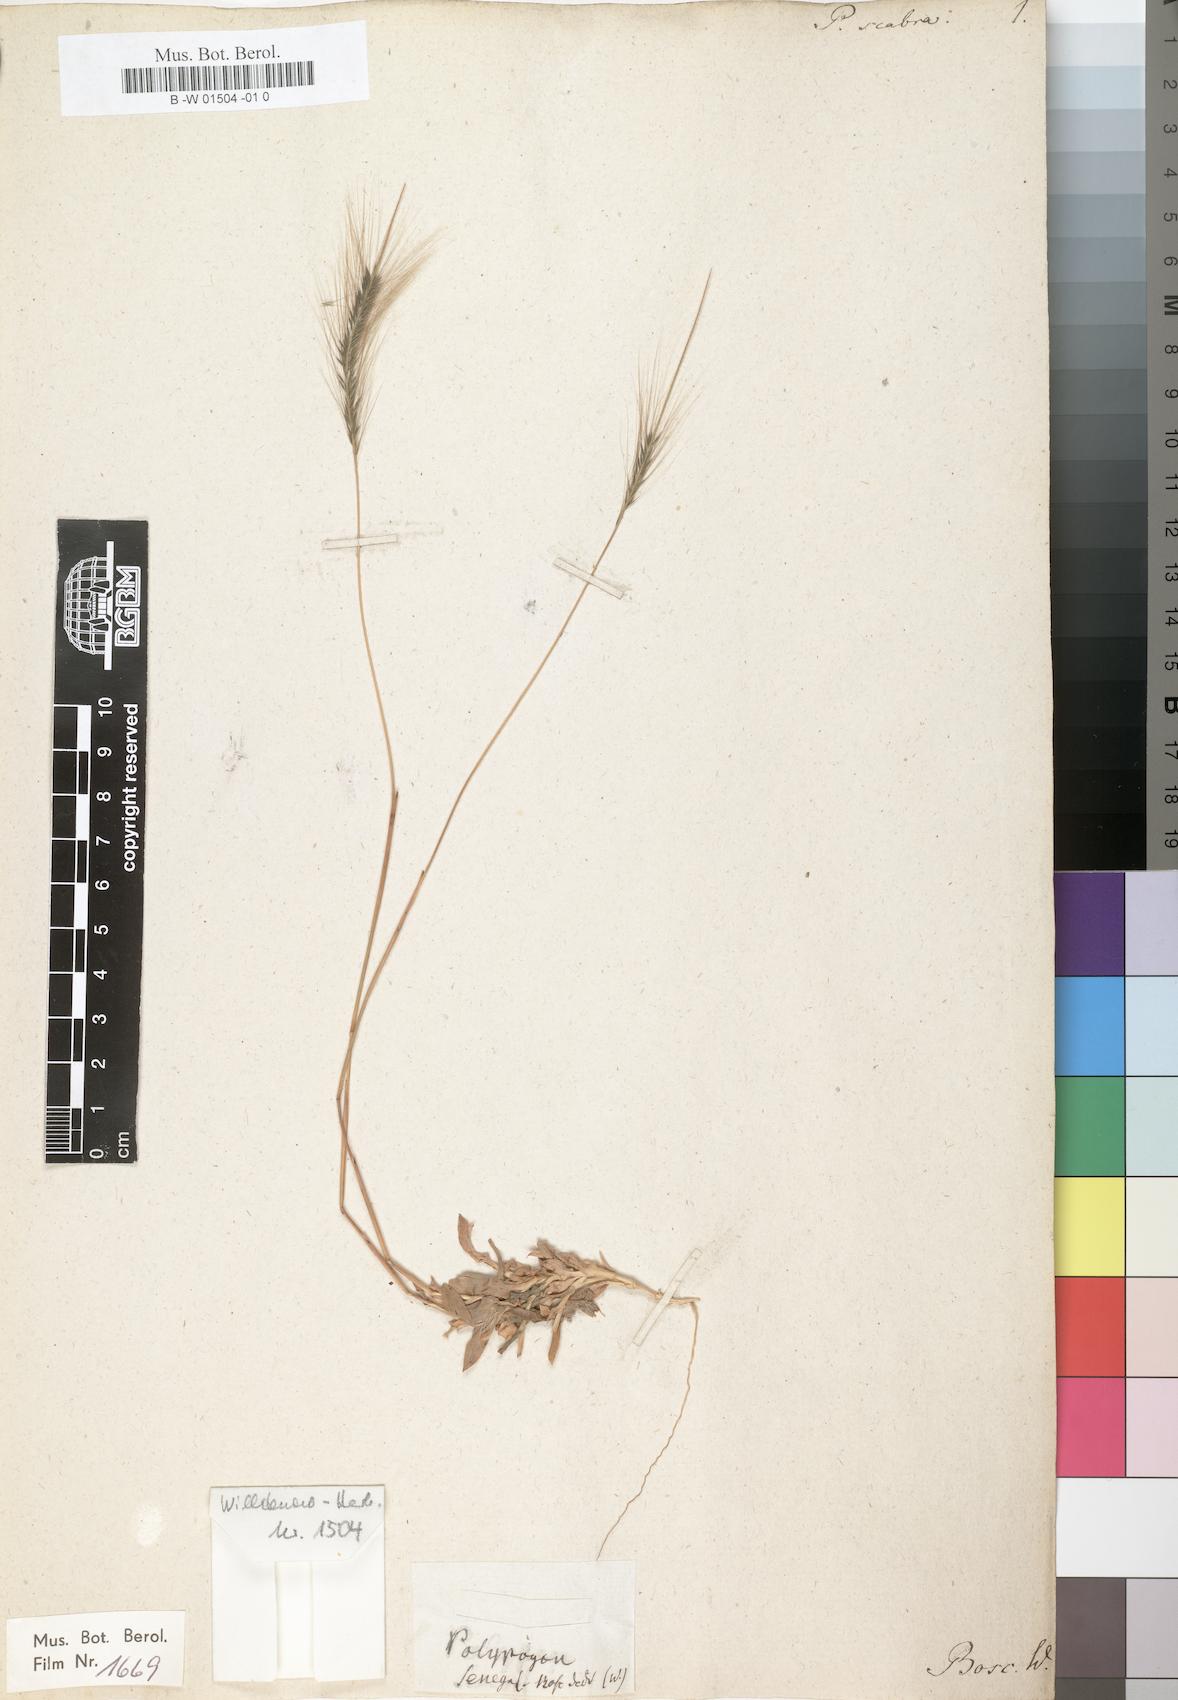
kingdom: Plantae
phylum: Tracheophyta
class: Liliopsida
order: Poales
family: Poaceae
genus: Perotis
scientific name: Perotis scabra
